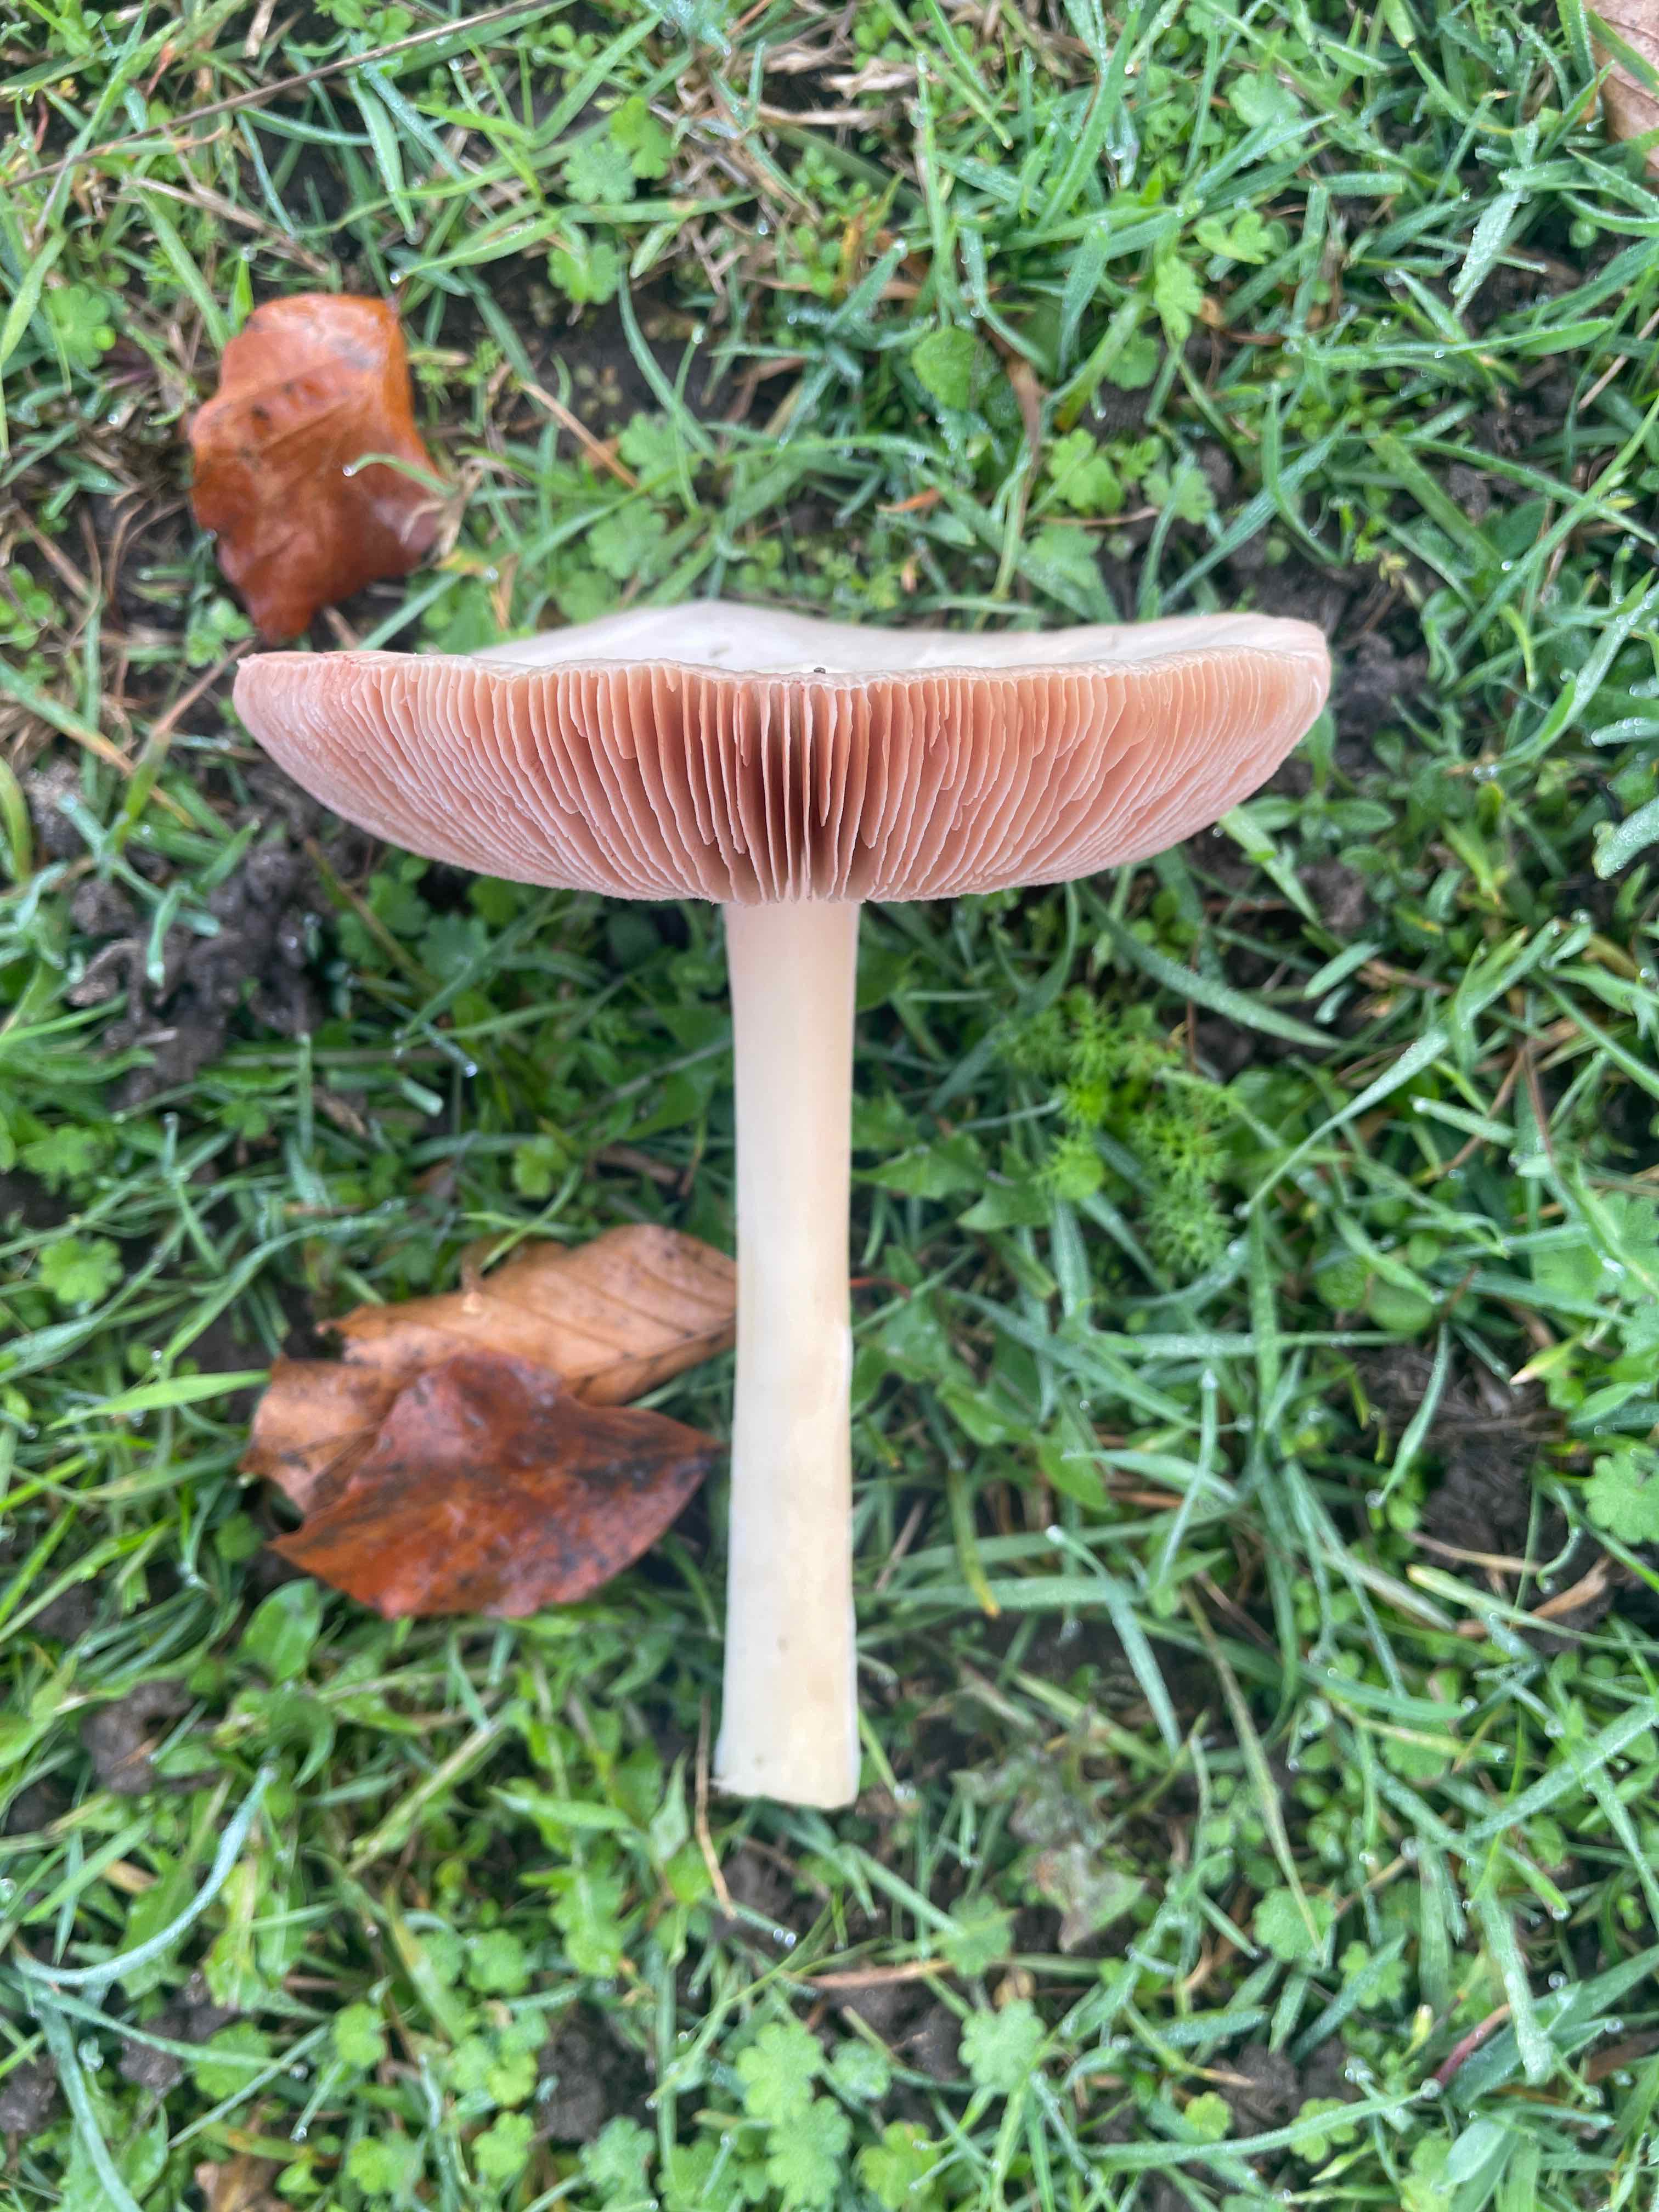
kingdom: Fungi
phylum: Basidiomycota
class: Agaricomycetes
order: Agaricales
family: Pluteaceae
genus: Volvopluteus
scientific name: Volvopluteus gloiocephalus
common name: høj posesvamp
